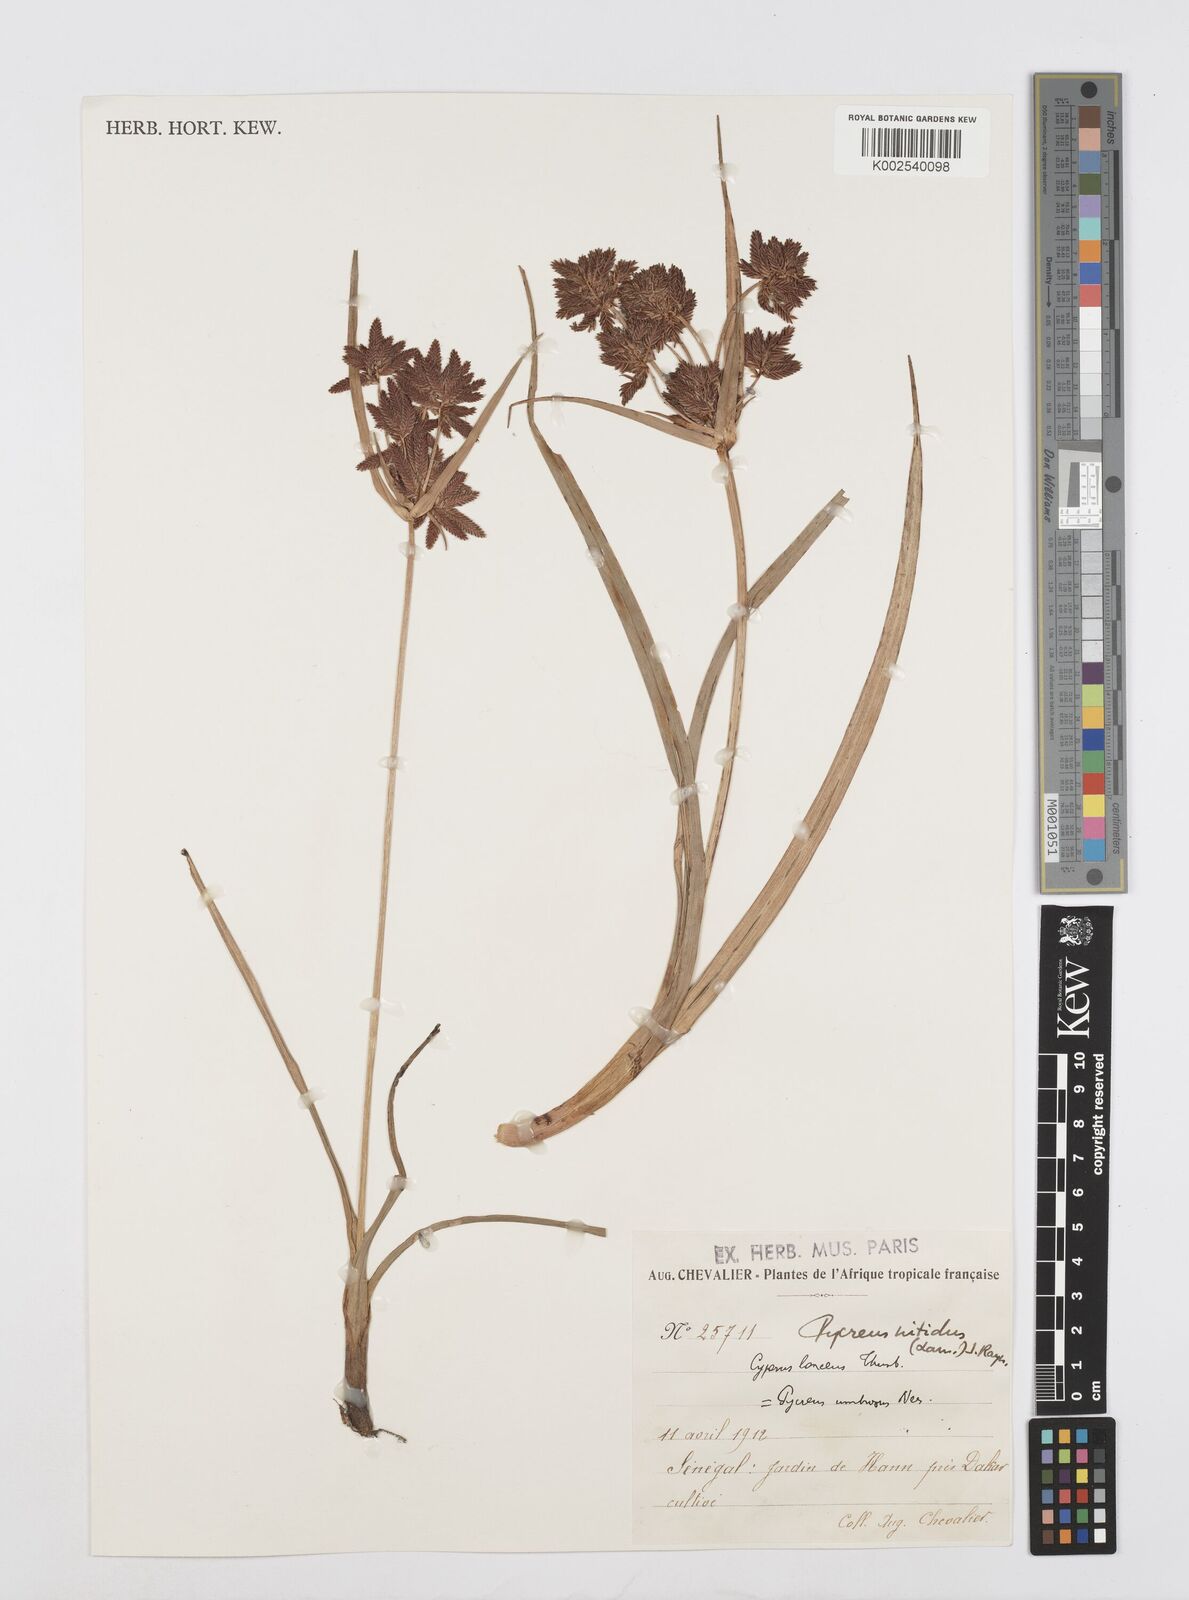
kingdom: Plantae
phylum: Tracheophyta
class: Liliopsida
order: Poales
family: Cyperaceae
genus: Cyperus
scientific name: Cyperus nitidus
